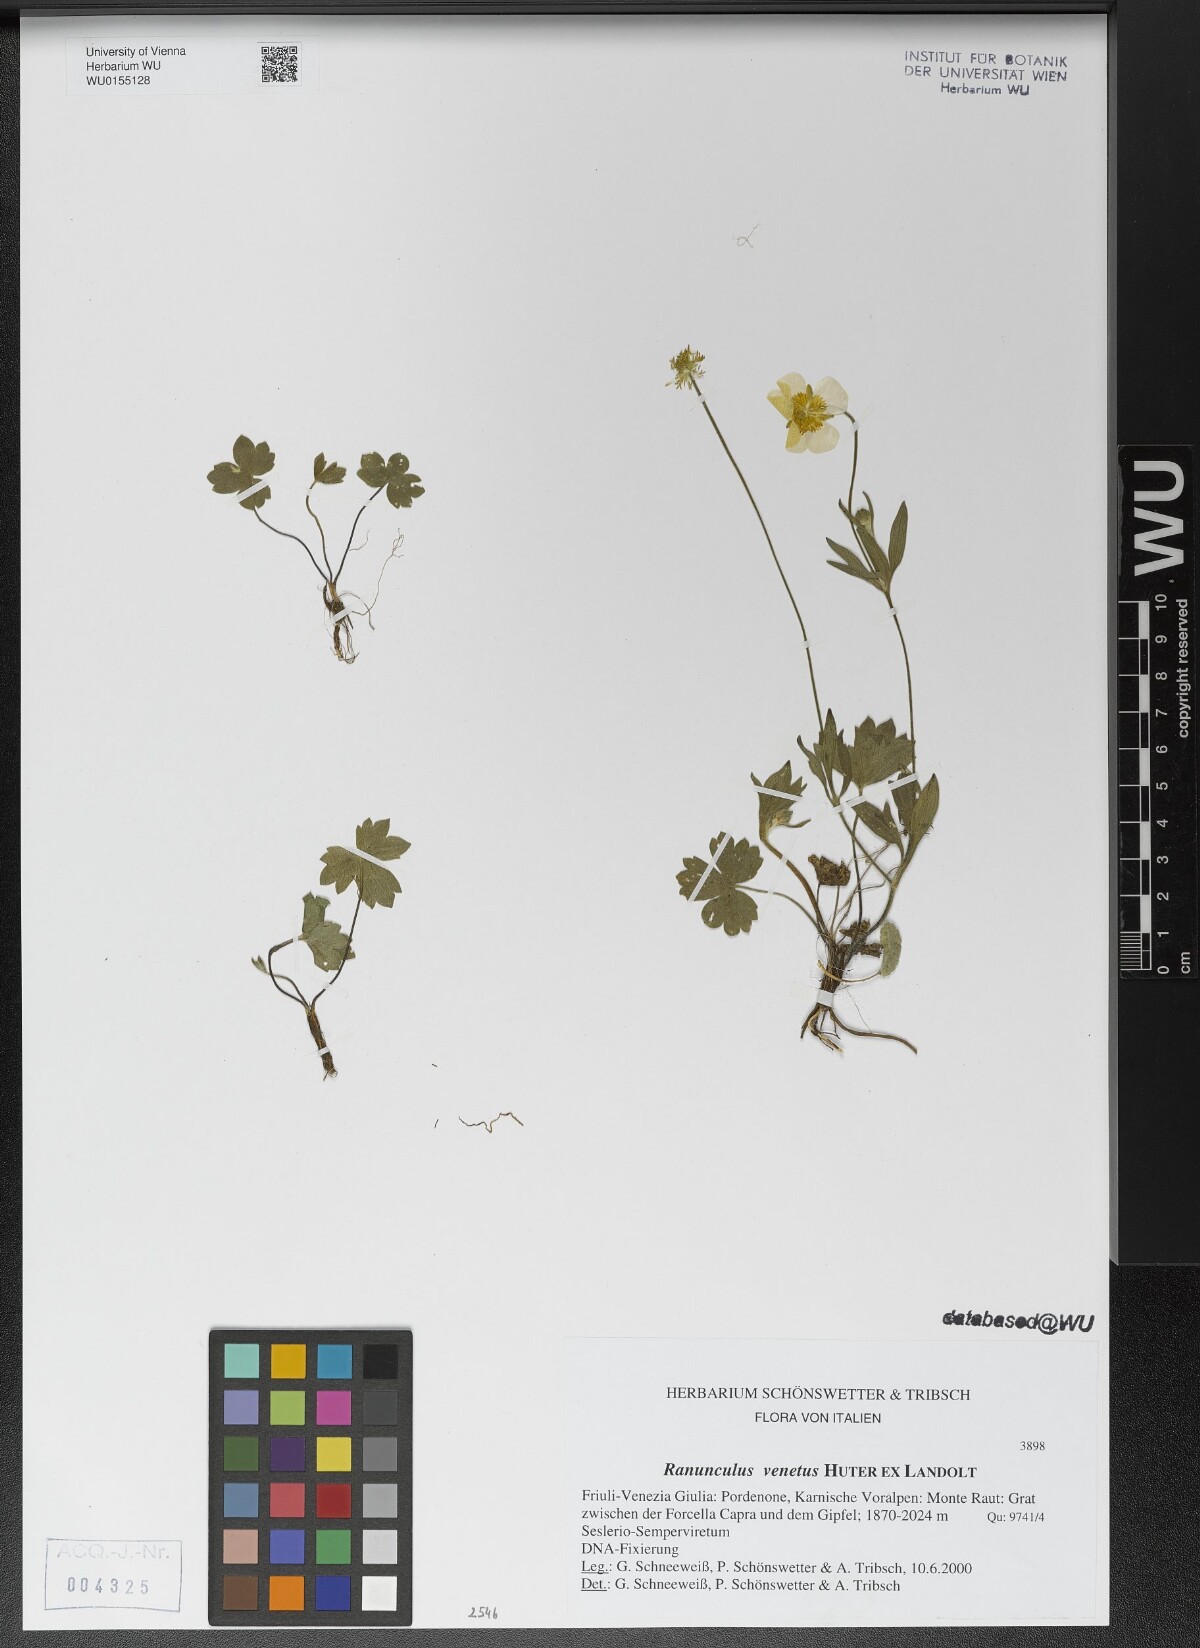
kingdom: Plantae
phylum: Tracheophyta
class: Magnoliopsida
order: Ranunculales
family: Ranunculaceae
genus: Ranunculus
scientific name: Ranunculus venetus
